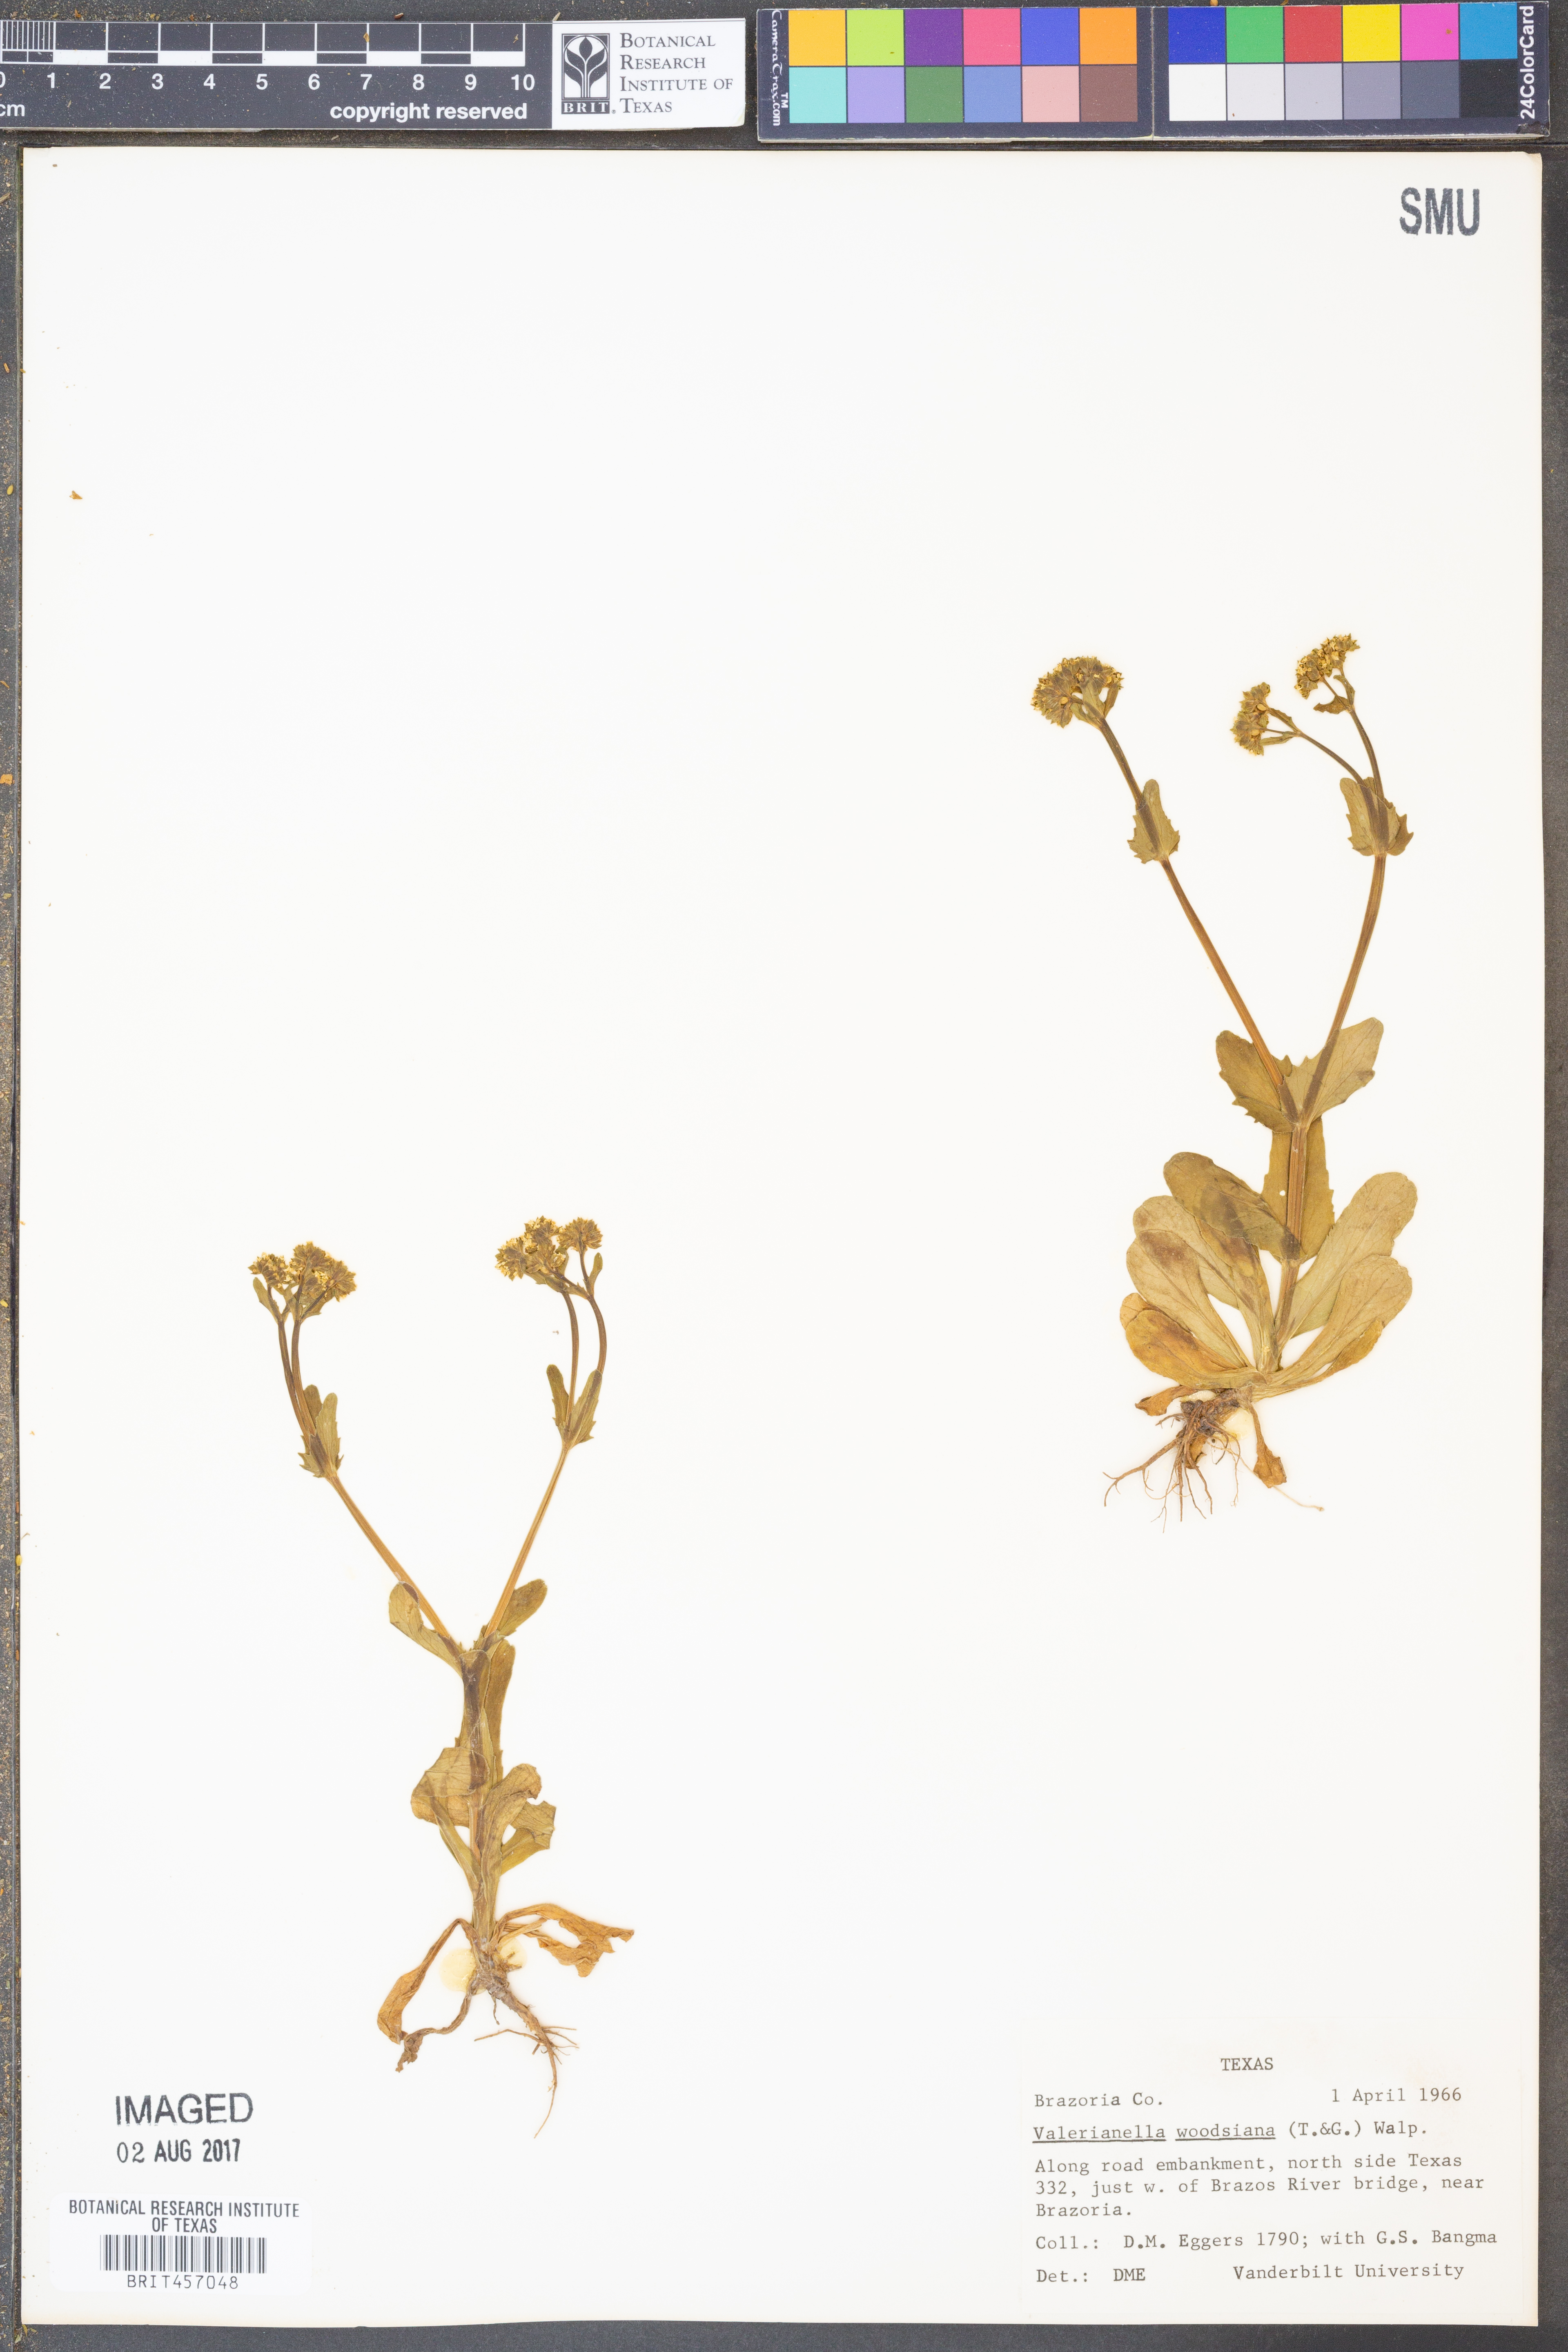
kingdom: Plantae
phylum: Tracheophyta
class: Magnoliopsida
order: Dipsacales
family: Caprifoliaceae
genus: Valerianella
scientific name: Valerianella radiata
